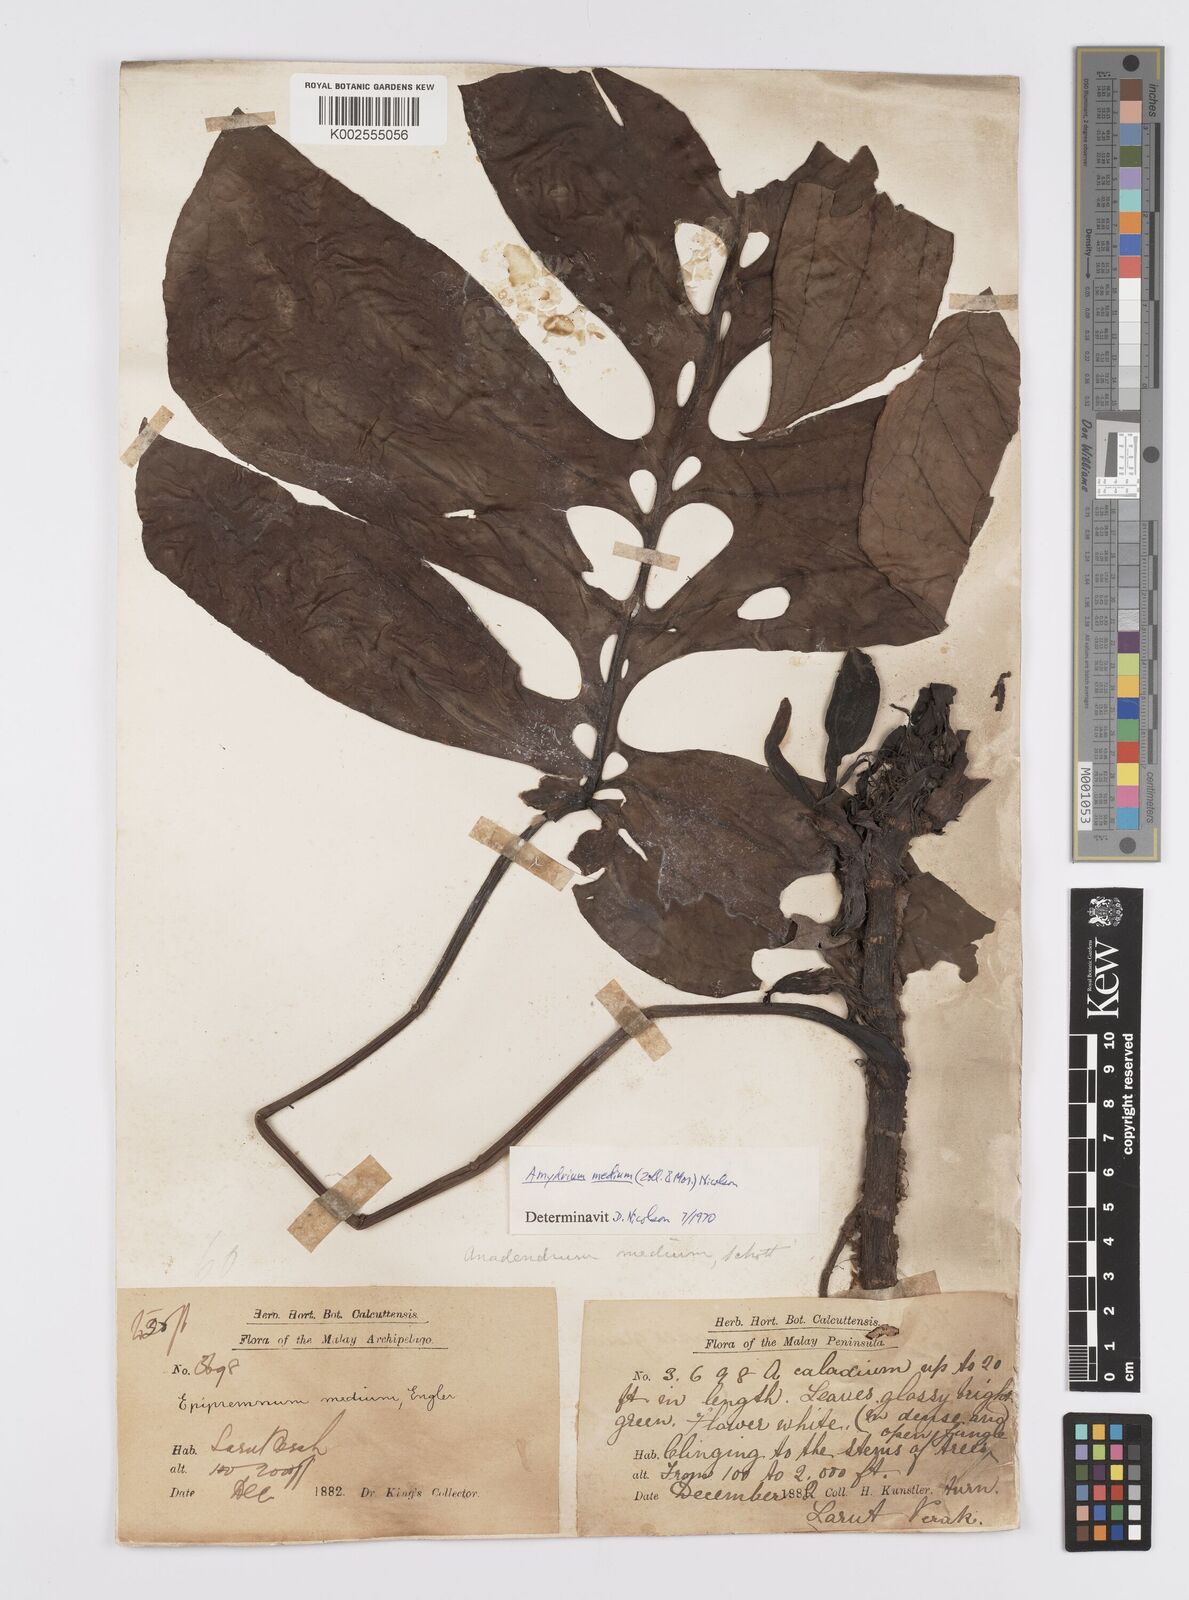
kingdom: Plantae
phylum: Tracheophyta
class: Liliopsida
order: Alismatales
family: Araceae
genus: Amydrium
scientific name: Amydrium medium
